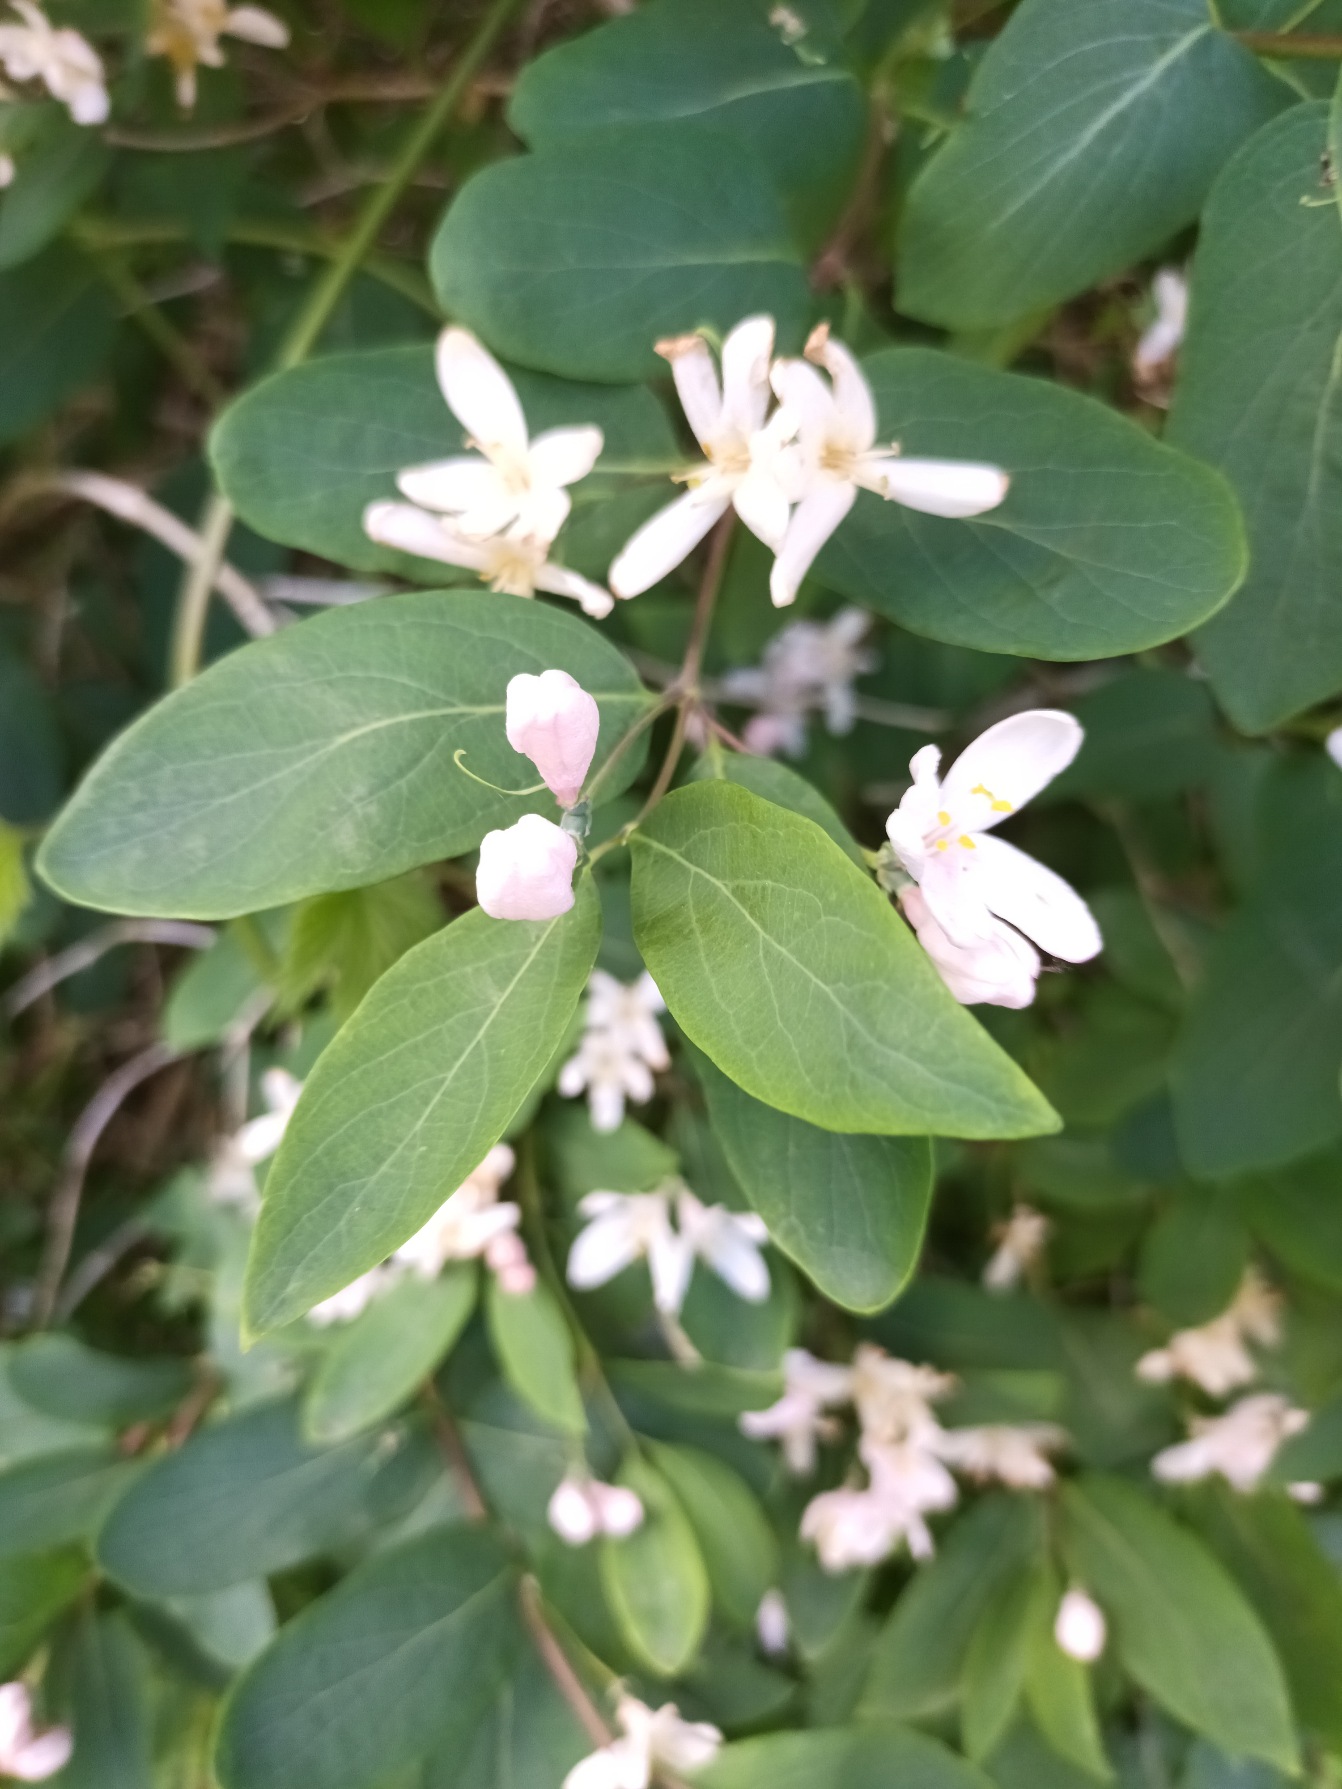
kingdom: Plantae
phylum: Tracheophyta
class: Magnoliopsida
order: Dipsacales
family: Caprifoliaceae
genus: Lonicera
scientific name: Lonicera tatarica
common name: Tatarisk gedeblad
